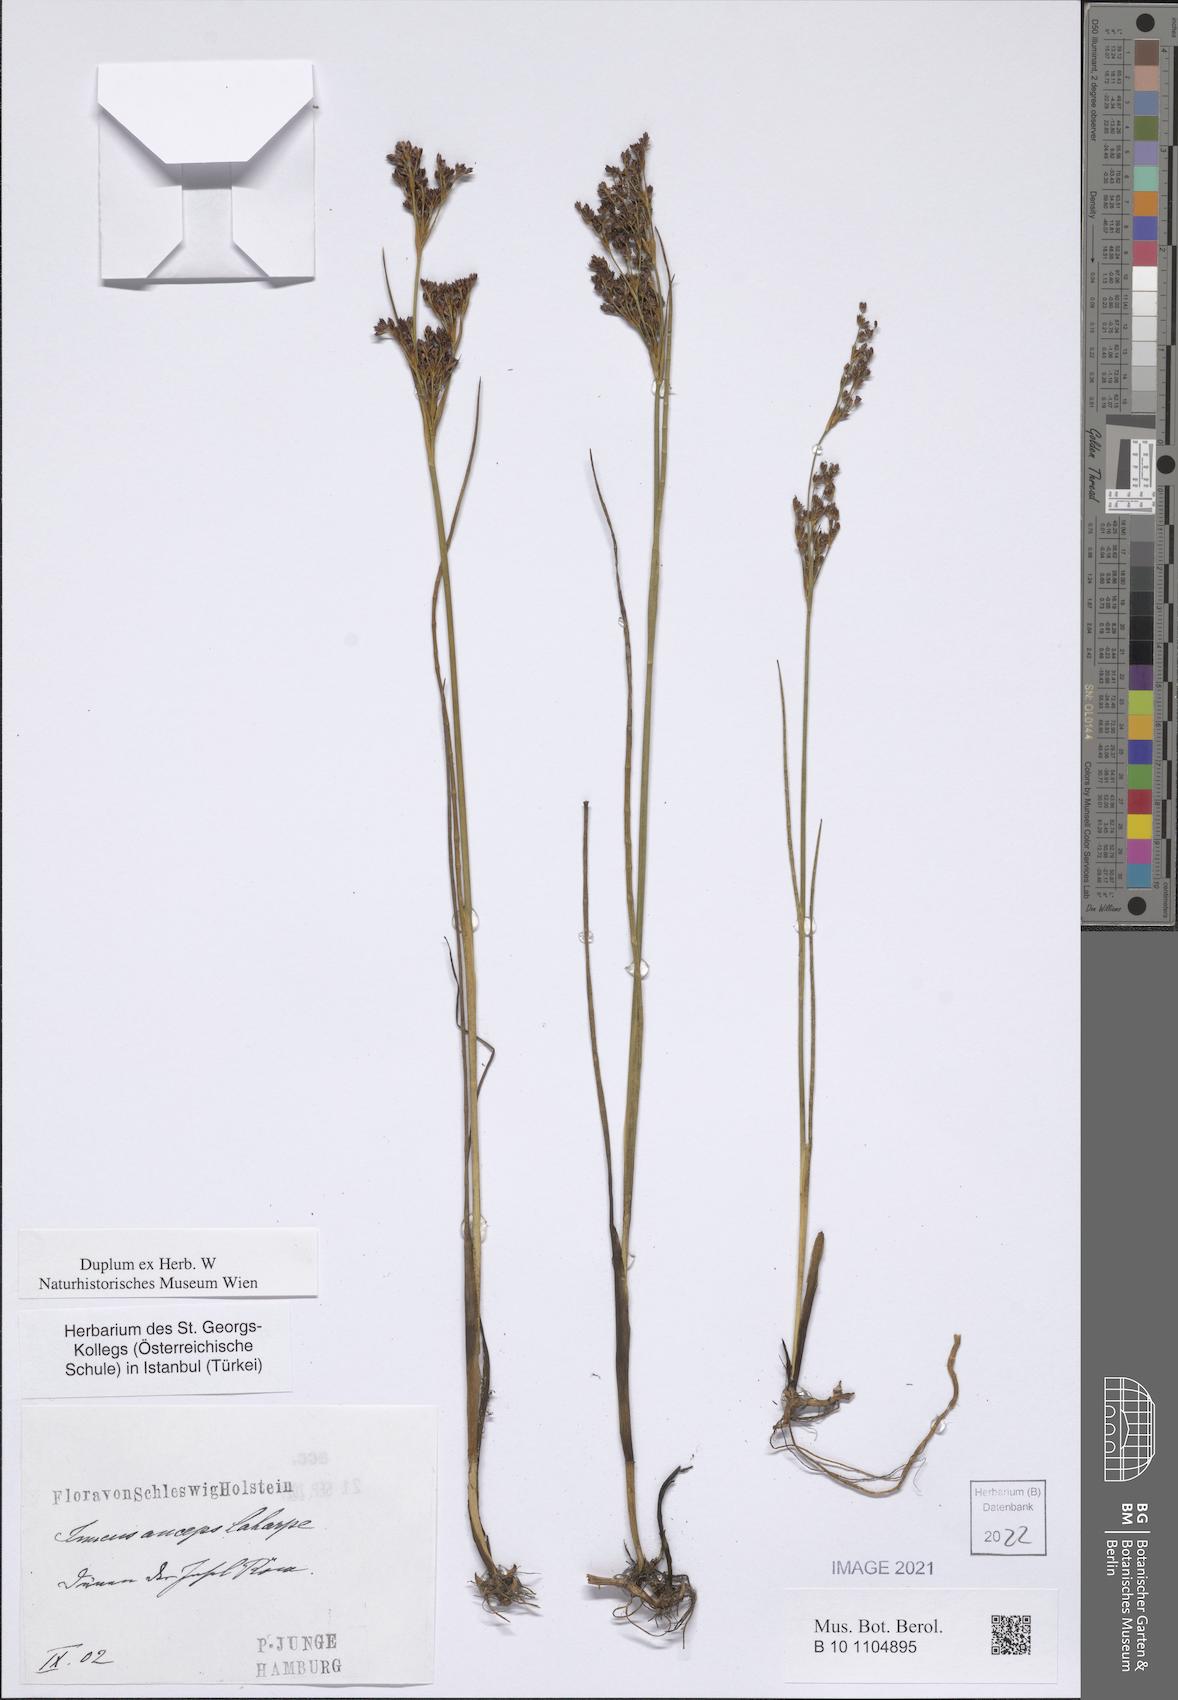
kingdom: Plantae
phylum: Tracheophyta
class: Liliopsida
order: Poales
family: Juncaceae
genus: Juncus
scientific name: Juncus anceps
